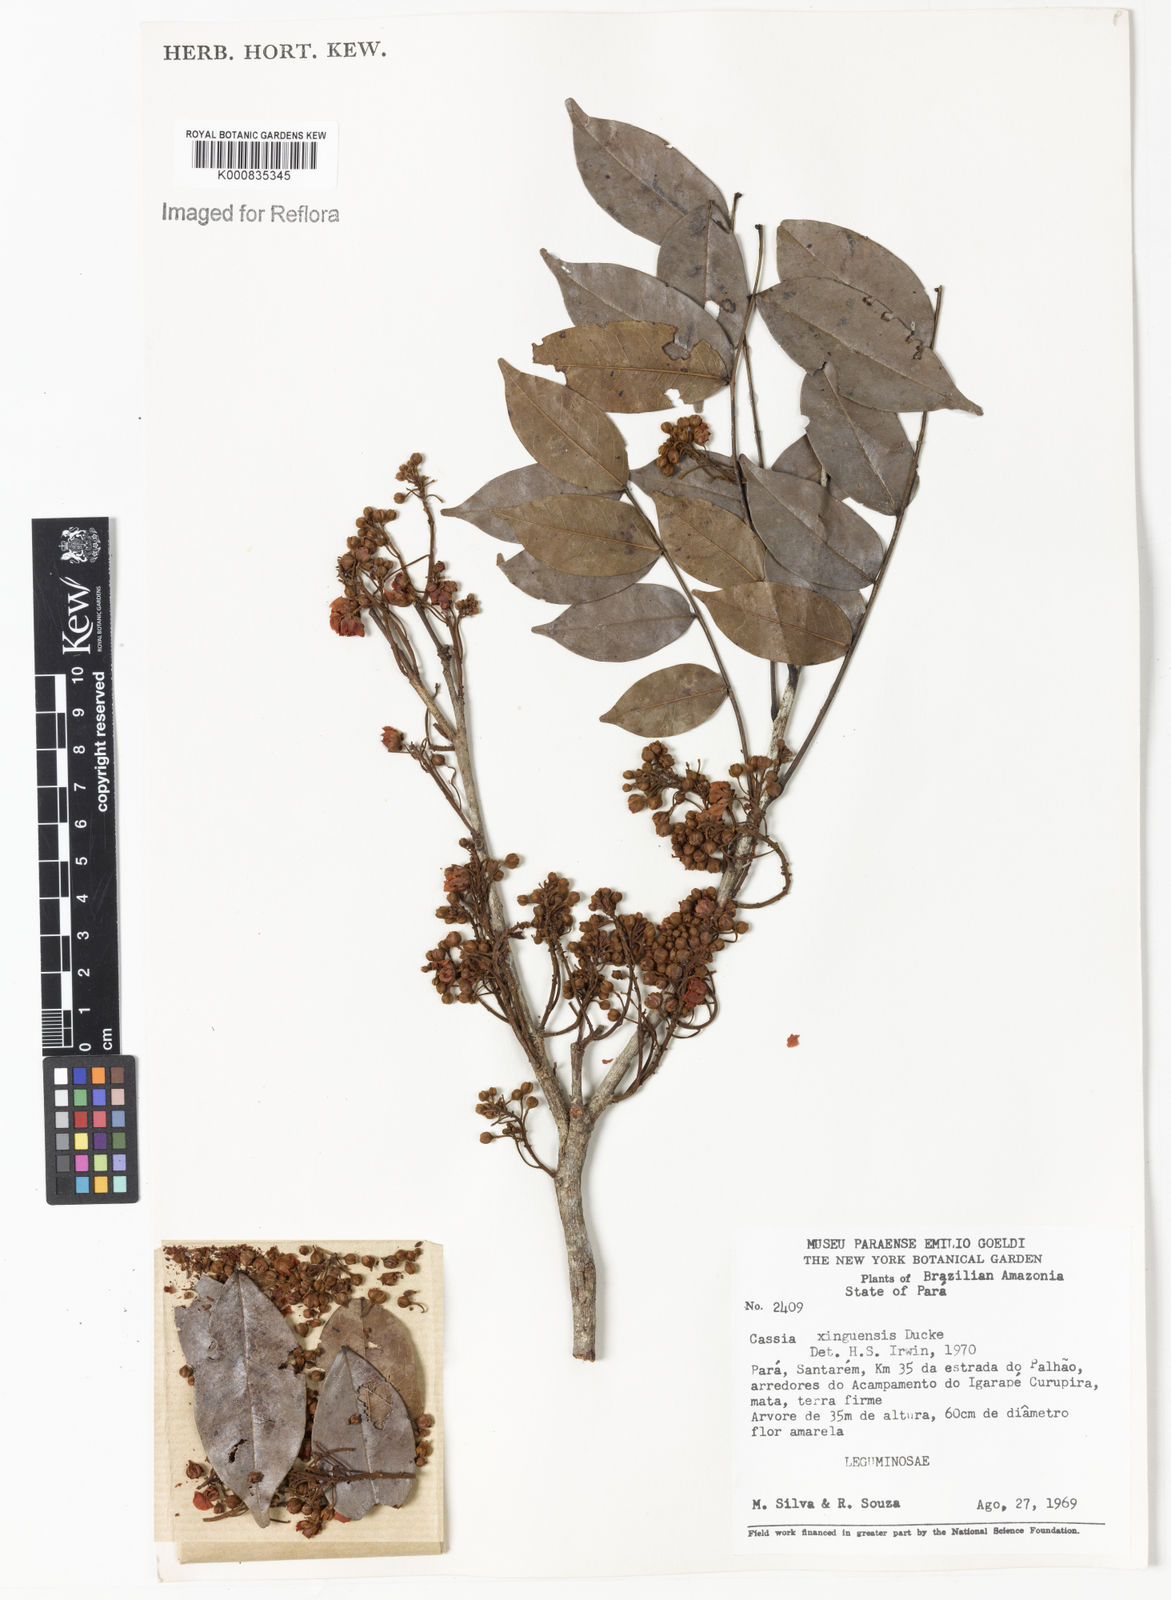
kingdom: Plantae
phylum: Tracheophyta
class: Magnoliopsida
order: Fabales
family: Fabaceae
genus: Chamaecrista
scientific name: Chamaecrista xinguensis
